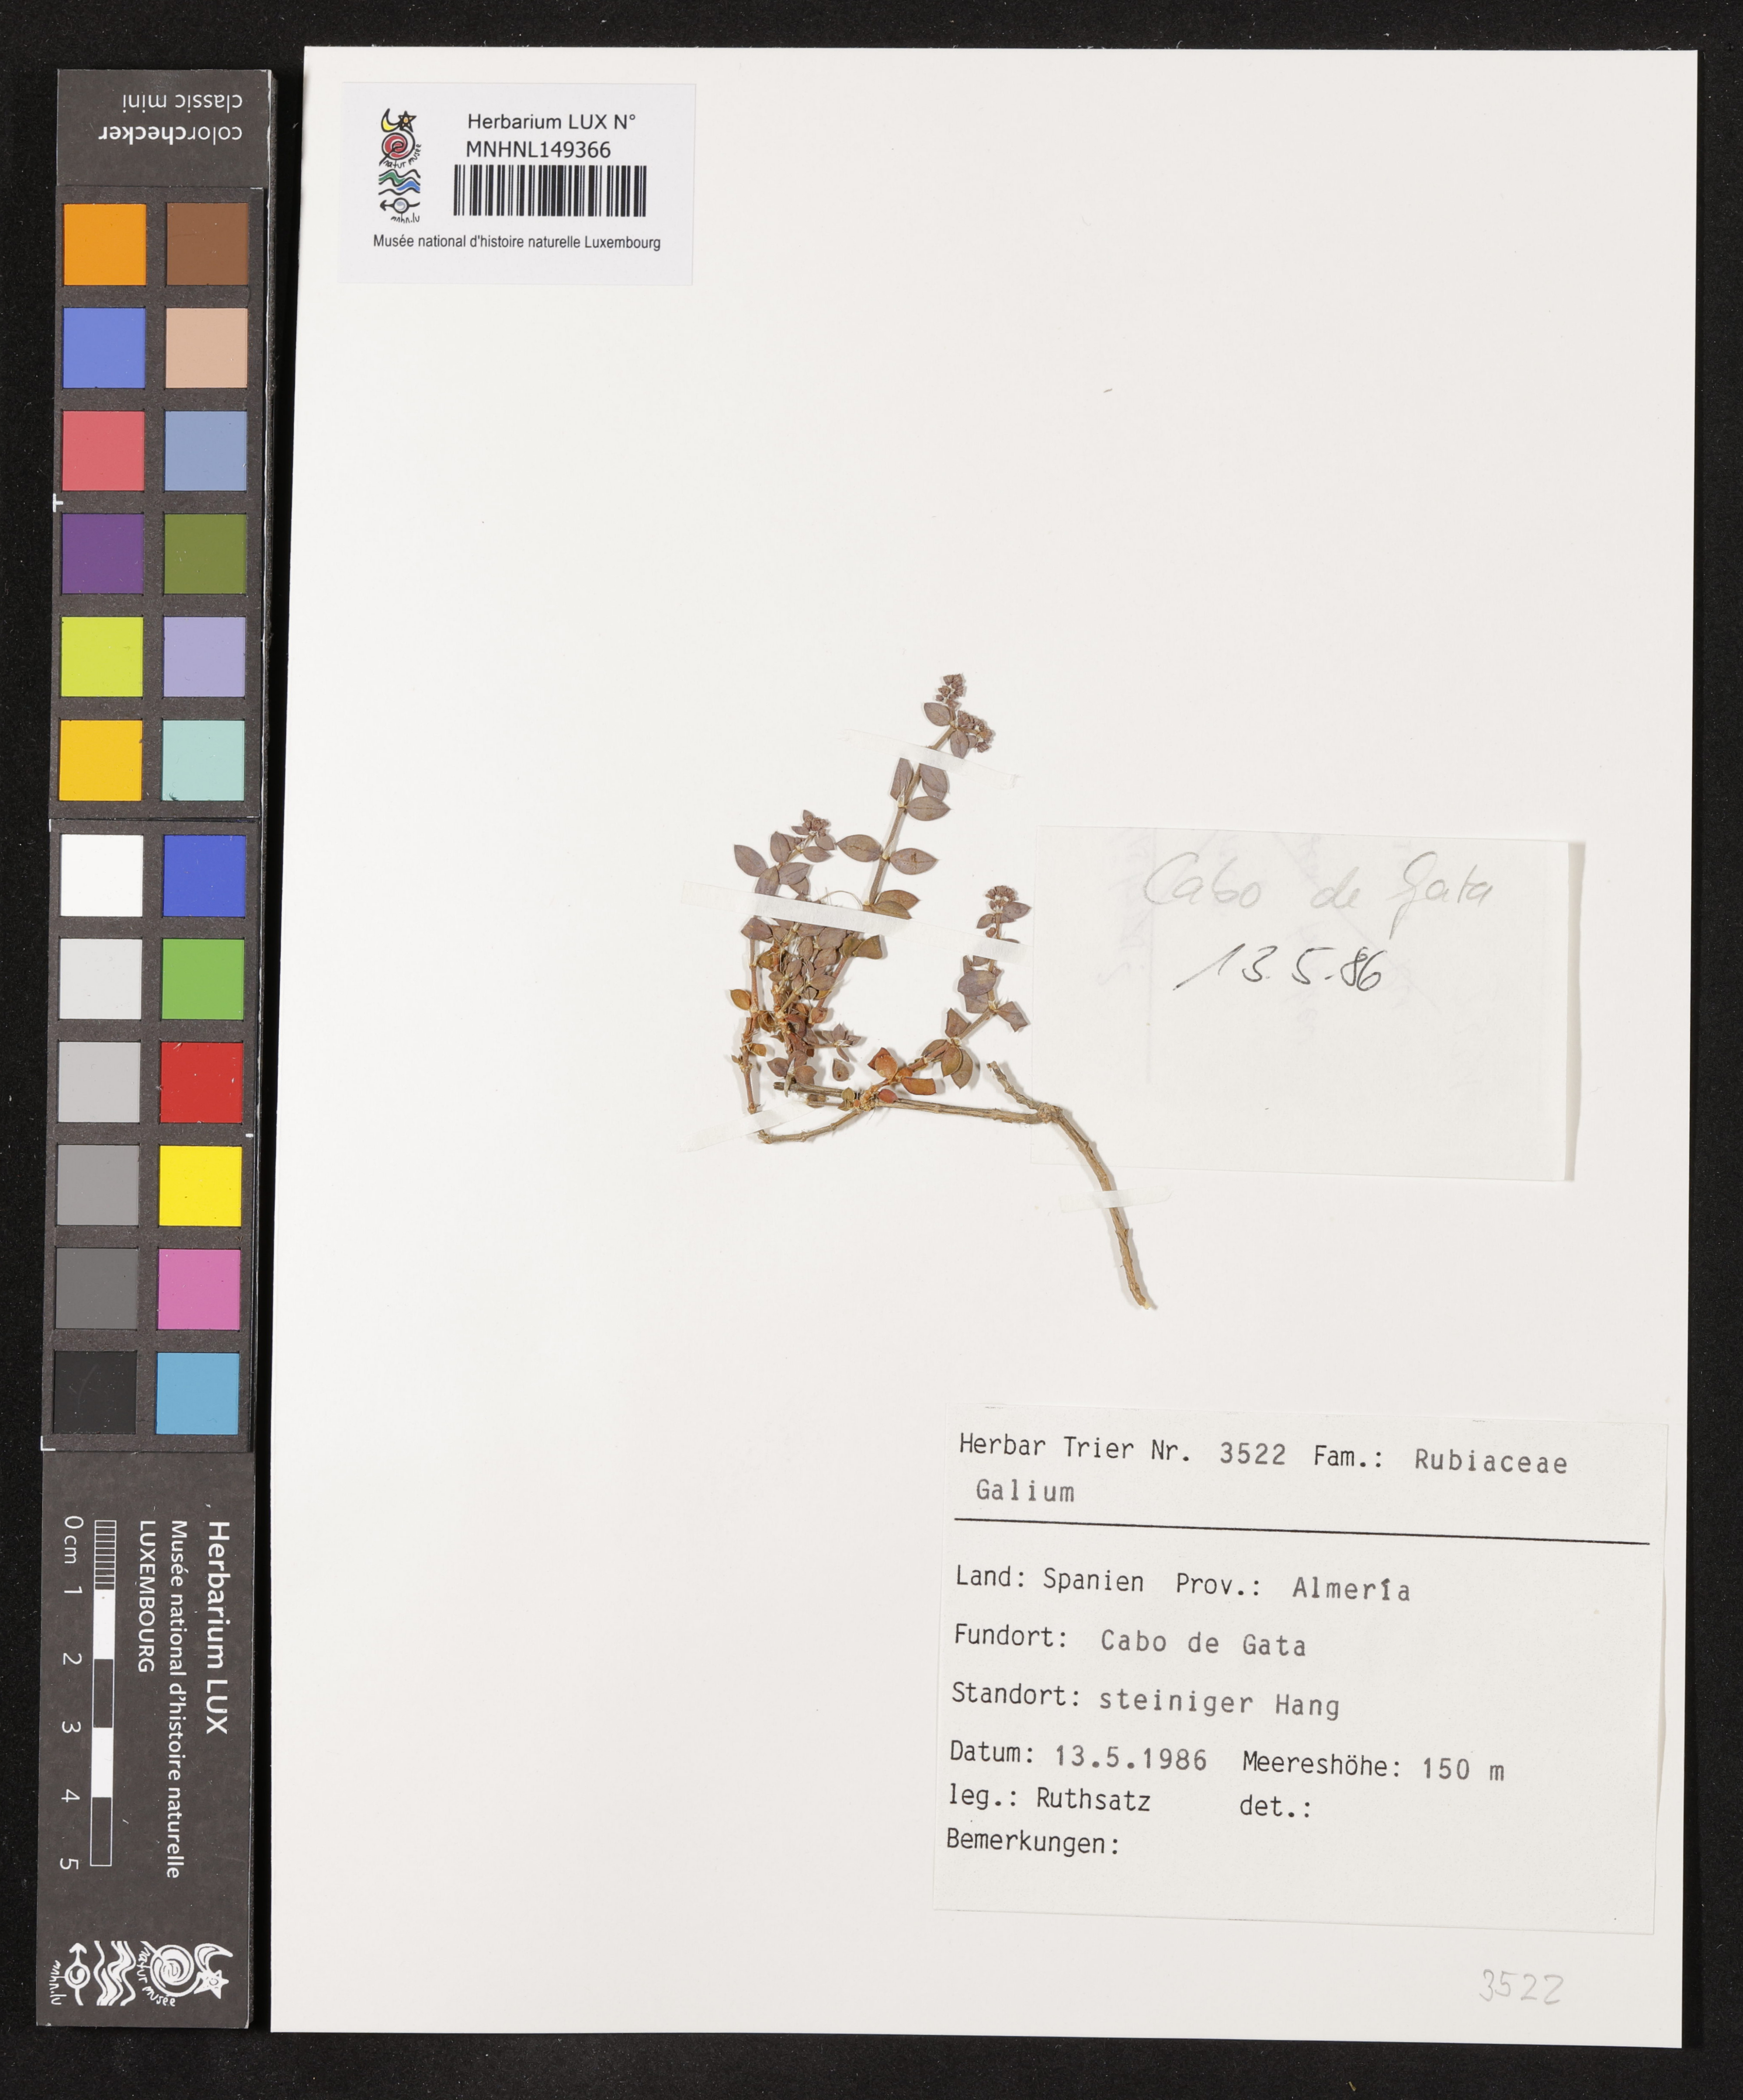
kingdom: Plantae
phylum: Tracheophyta
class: Magnoliopsida
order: Gentianales
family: Rubiaceae
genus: Galium
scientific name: Galium
